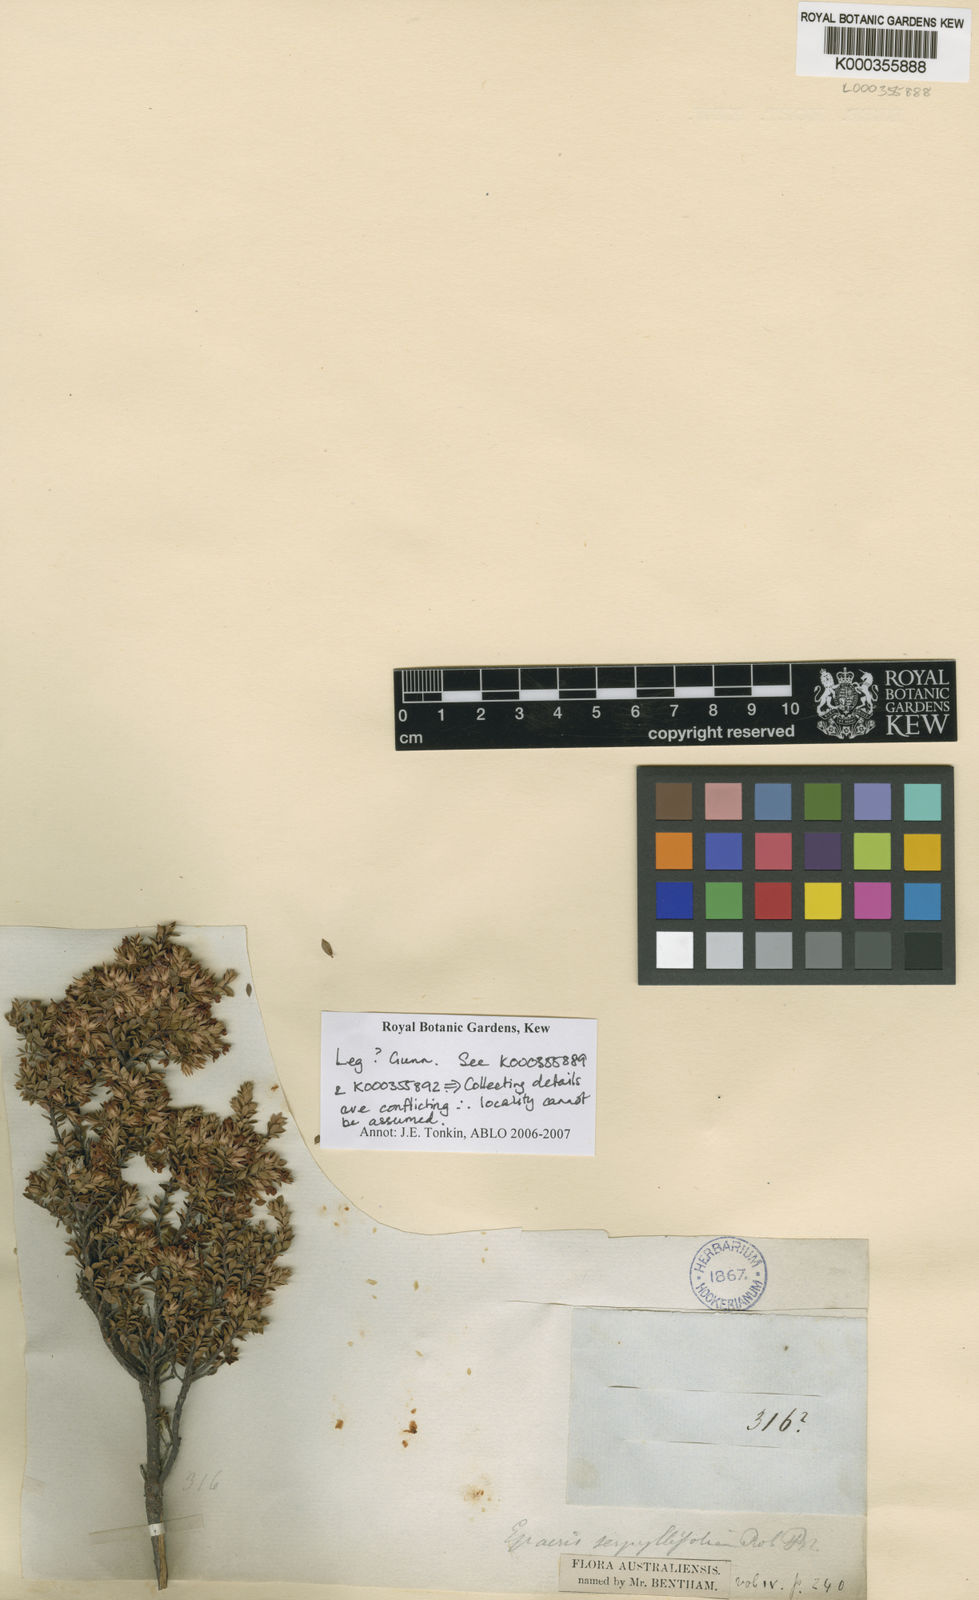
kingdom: Plantae
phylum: Tracheophyta
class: Magnoliopsida
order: Ericales
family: Ericaceae
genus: Epacris
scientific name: Epacris serpyllifolia
